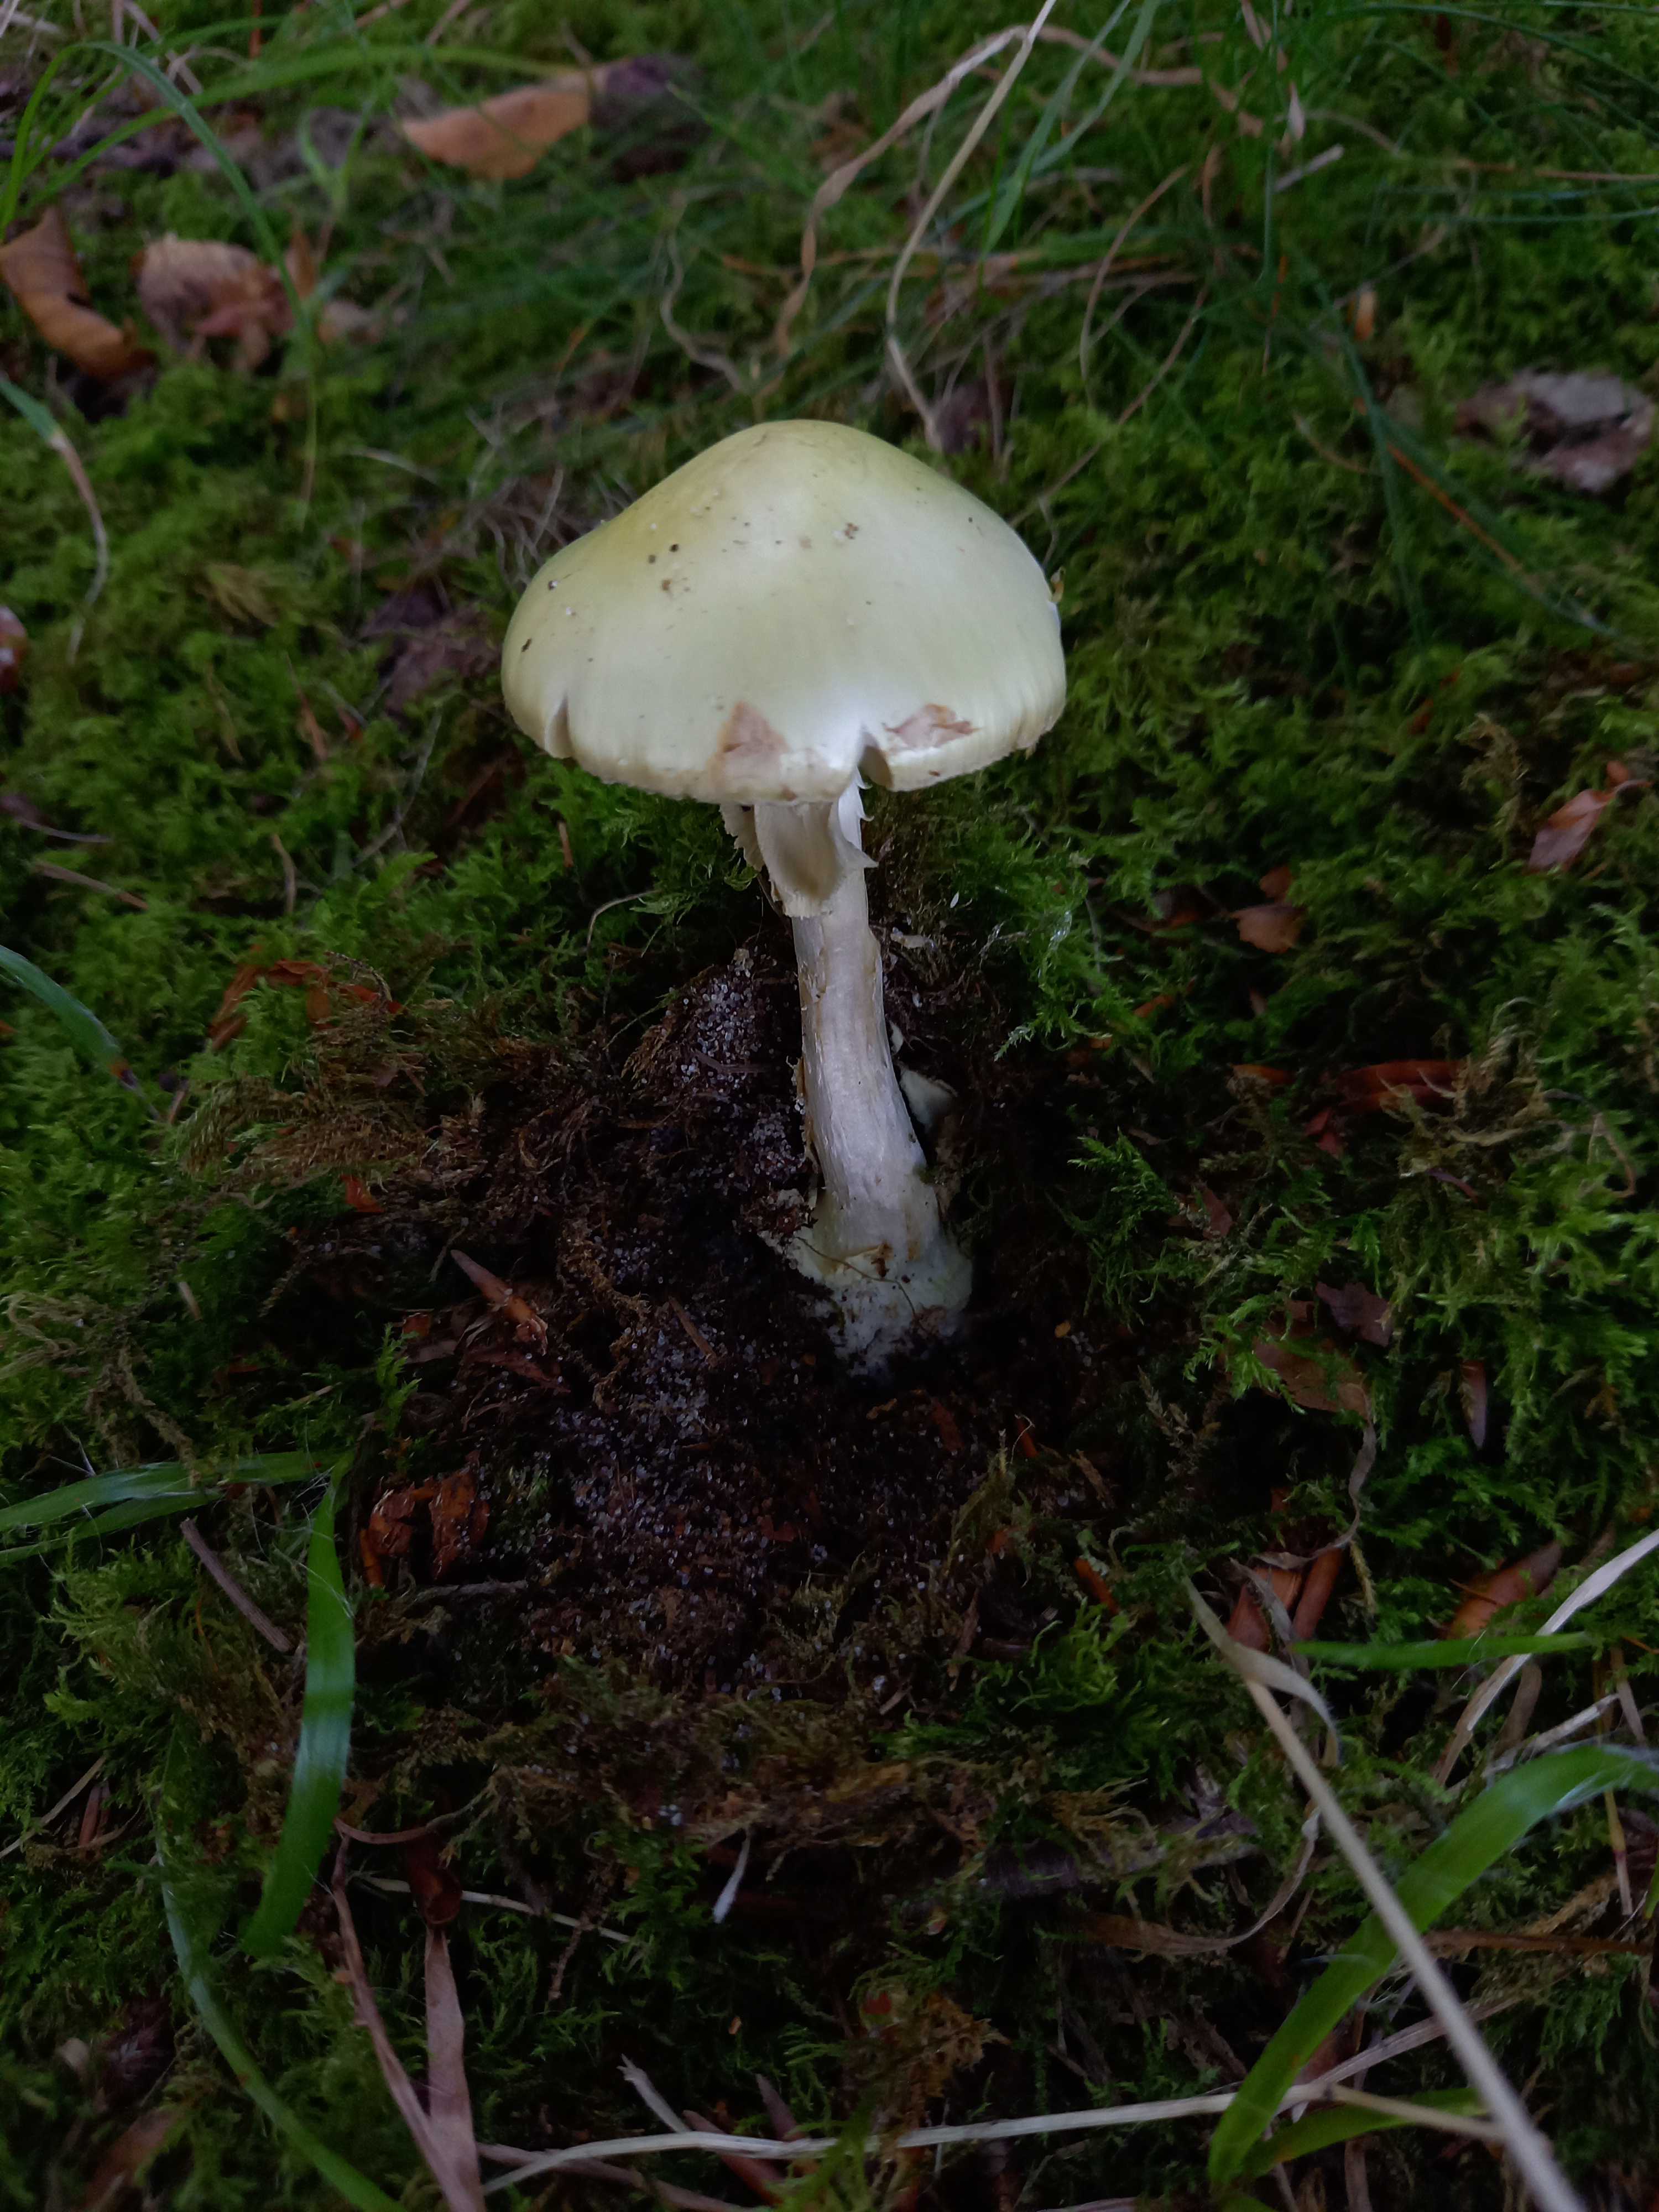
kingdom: Fungi
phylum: Basidiomycota
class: Agaricomycetes
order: Agaricales
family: Amanitaceae
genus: Amanita
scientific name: Amanita phalloides
